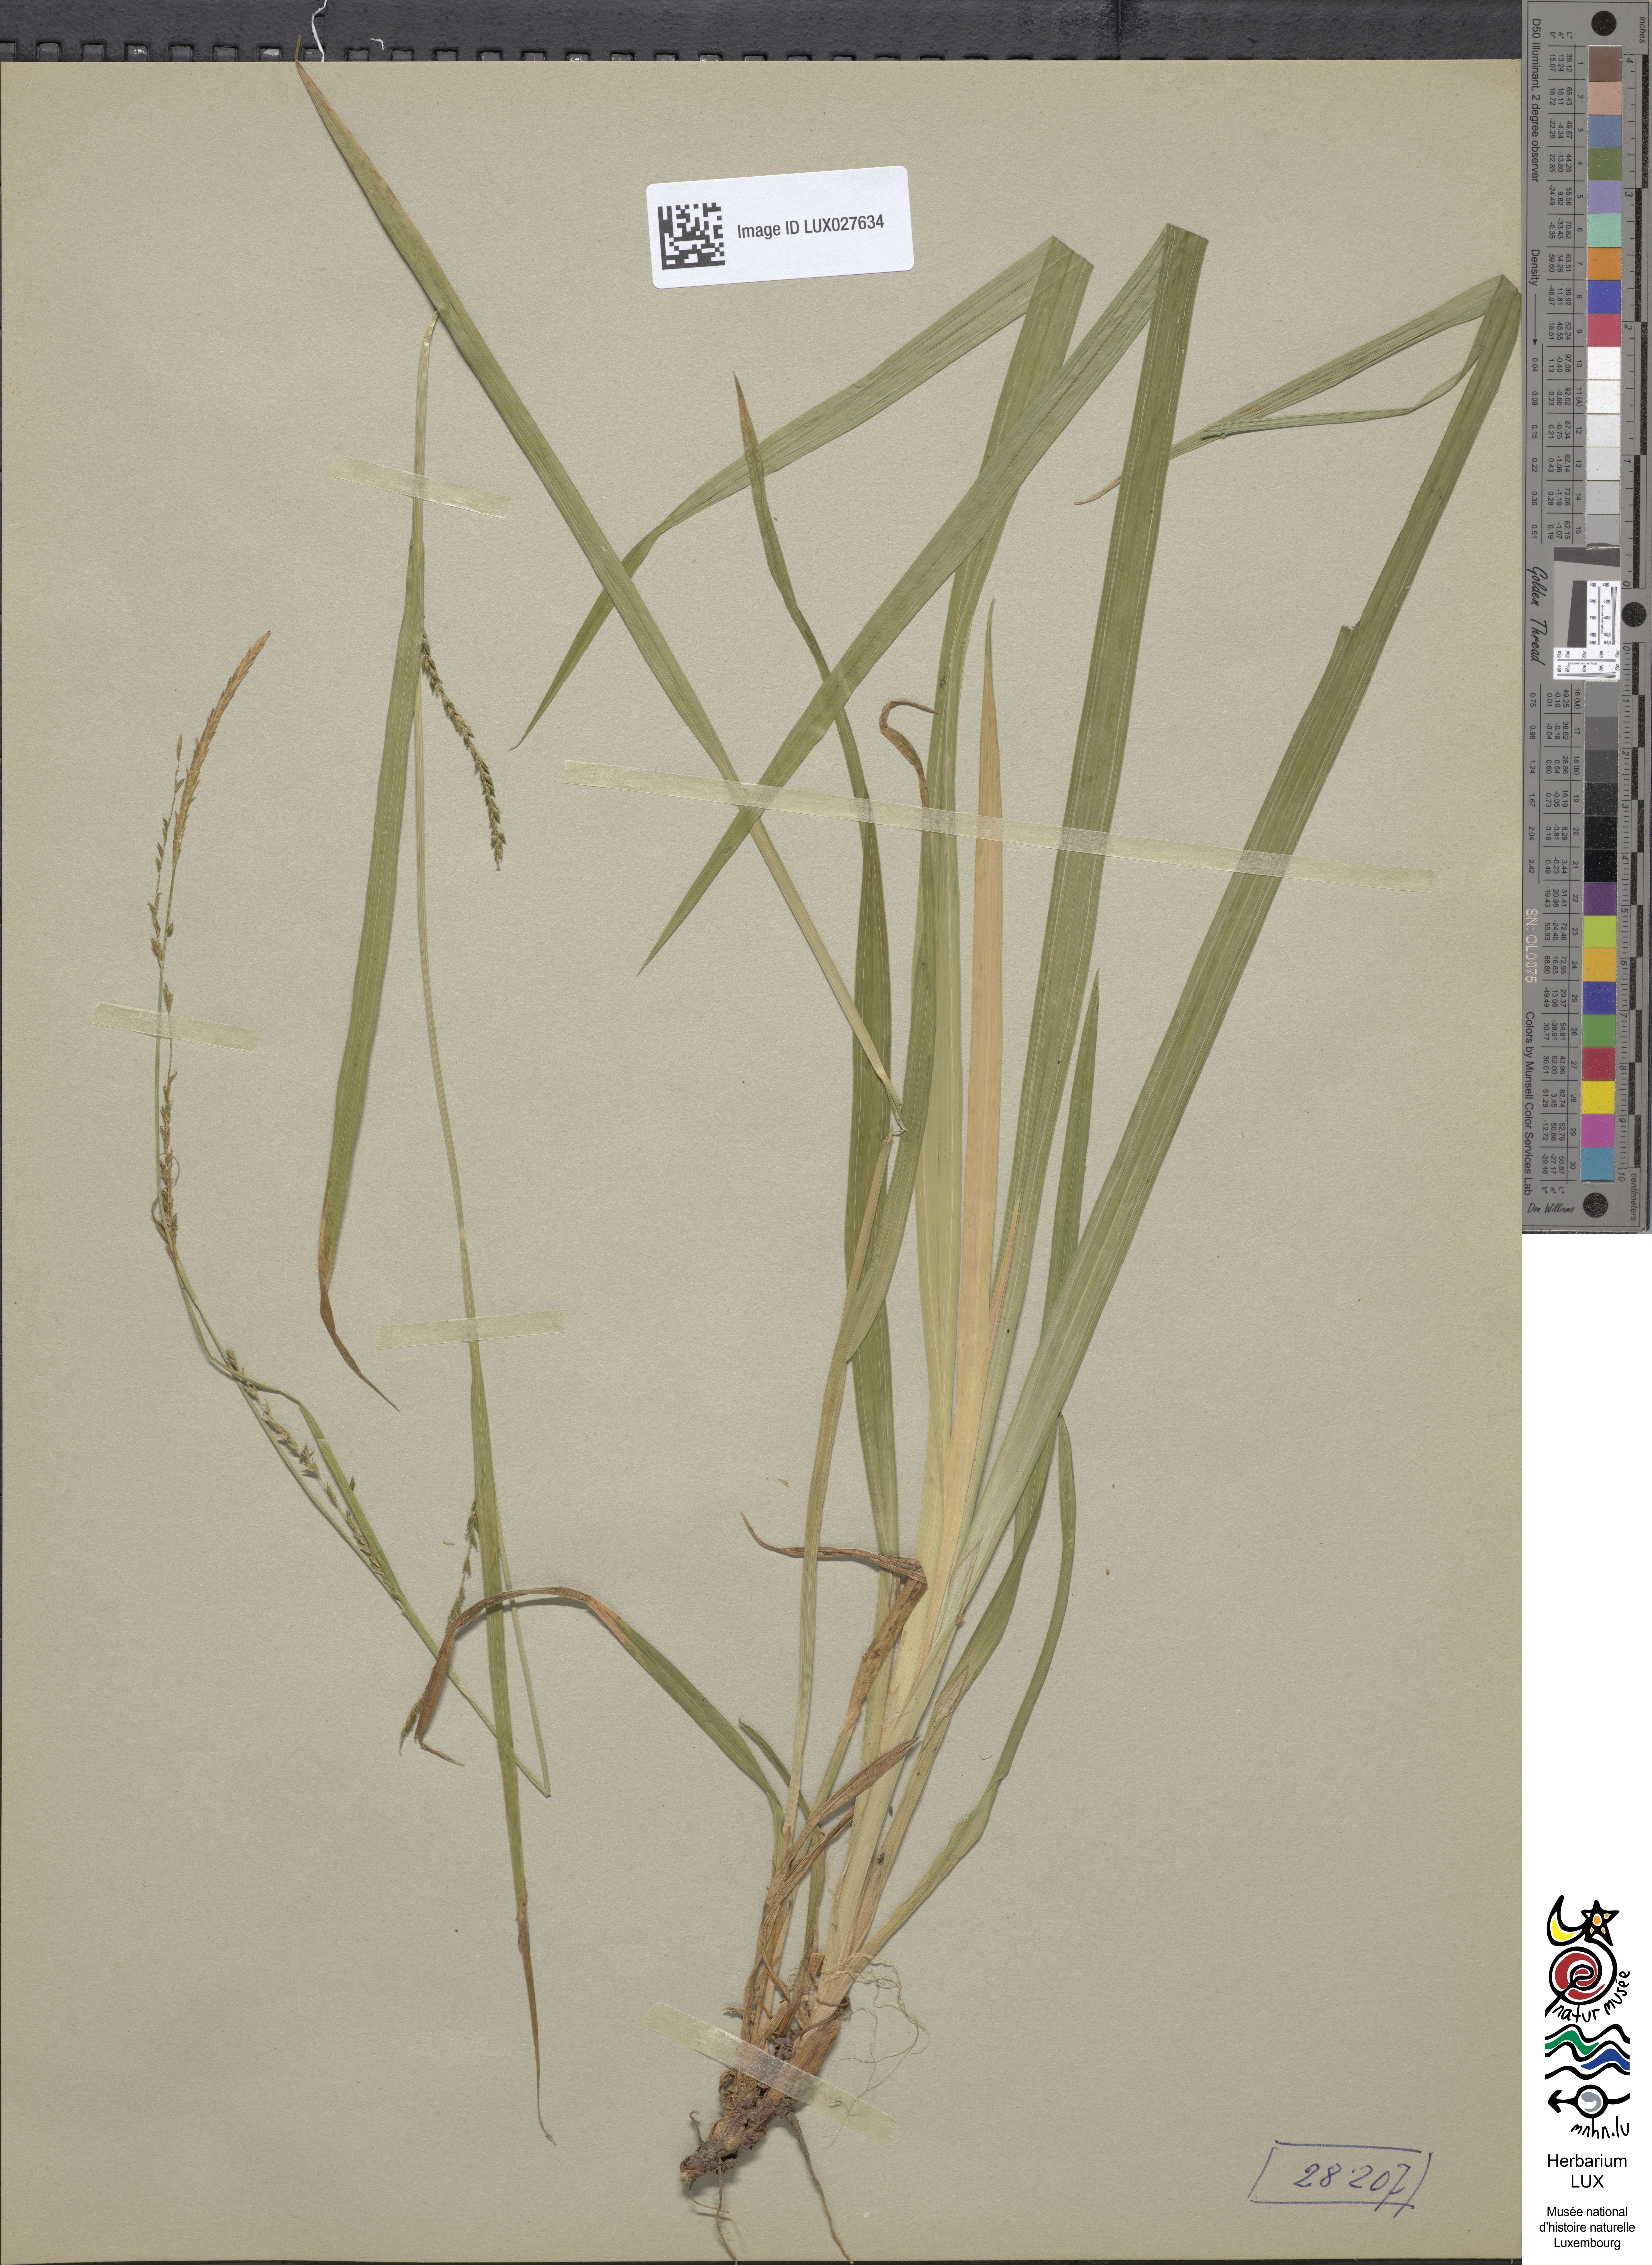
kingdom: Plantae
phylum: Tracheophyta
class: Liliopsida
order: Poales
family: Cyperaceae
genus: Carex
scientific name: Carex strigosa
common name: Thin-spiked wood-sedge
